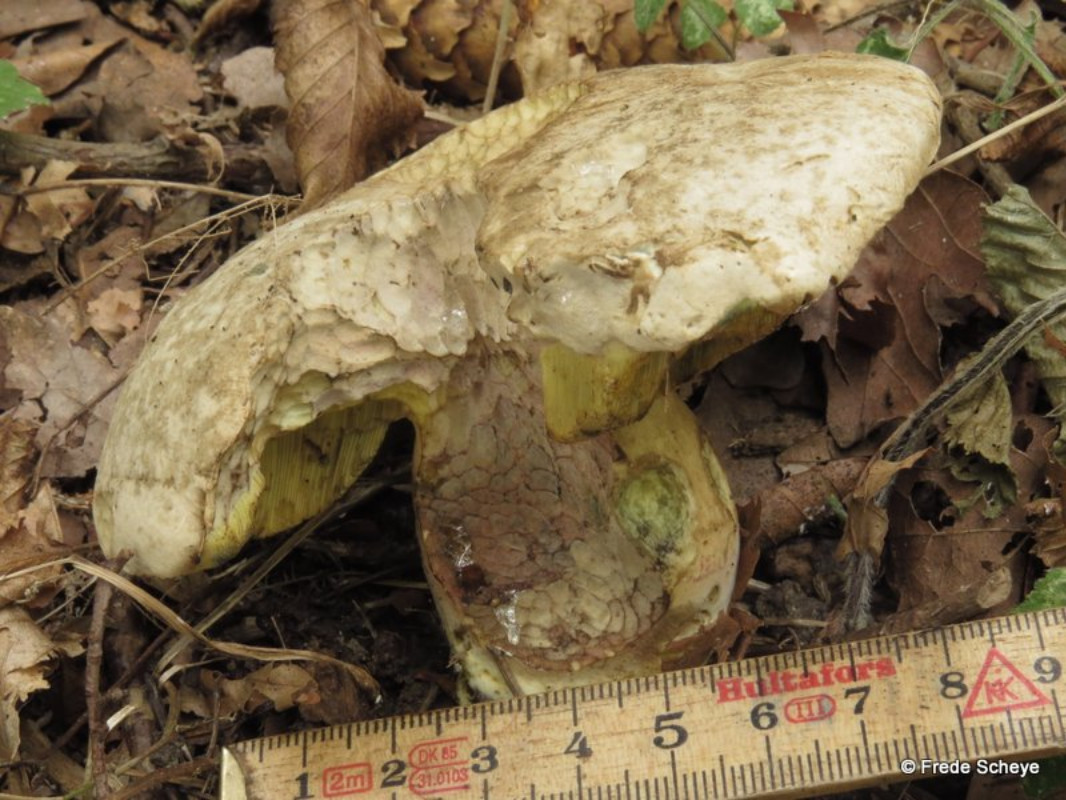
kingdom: Fungi
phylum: Basidiomycota
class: Agaricomycetes
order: Boletales
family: Boletaceae
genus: Caloboletus
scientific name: Caloboletus radicans
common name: rod-rørhat
